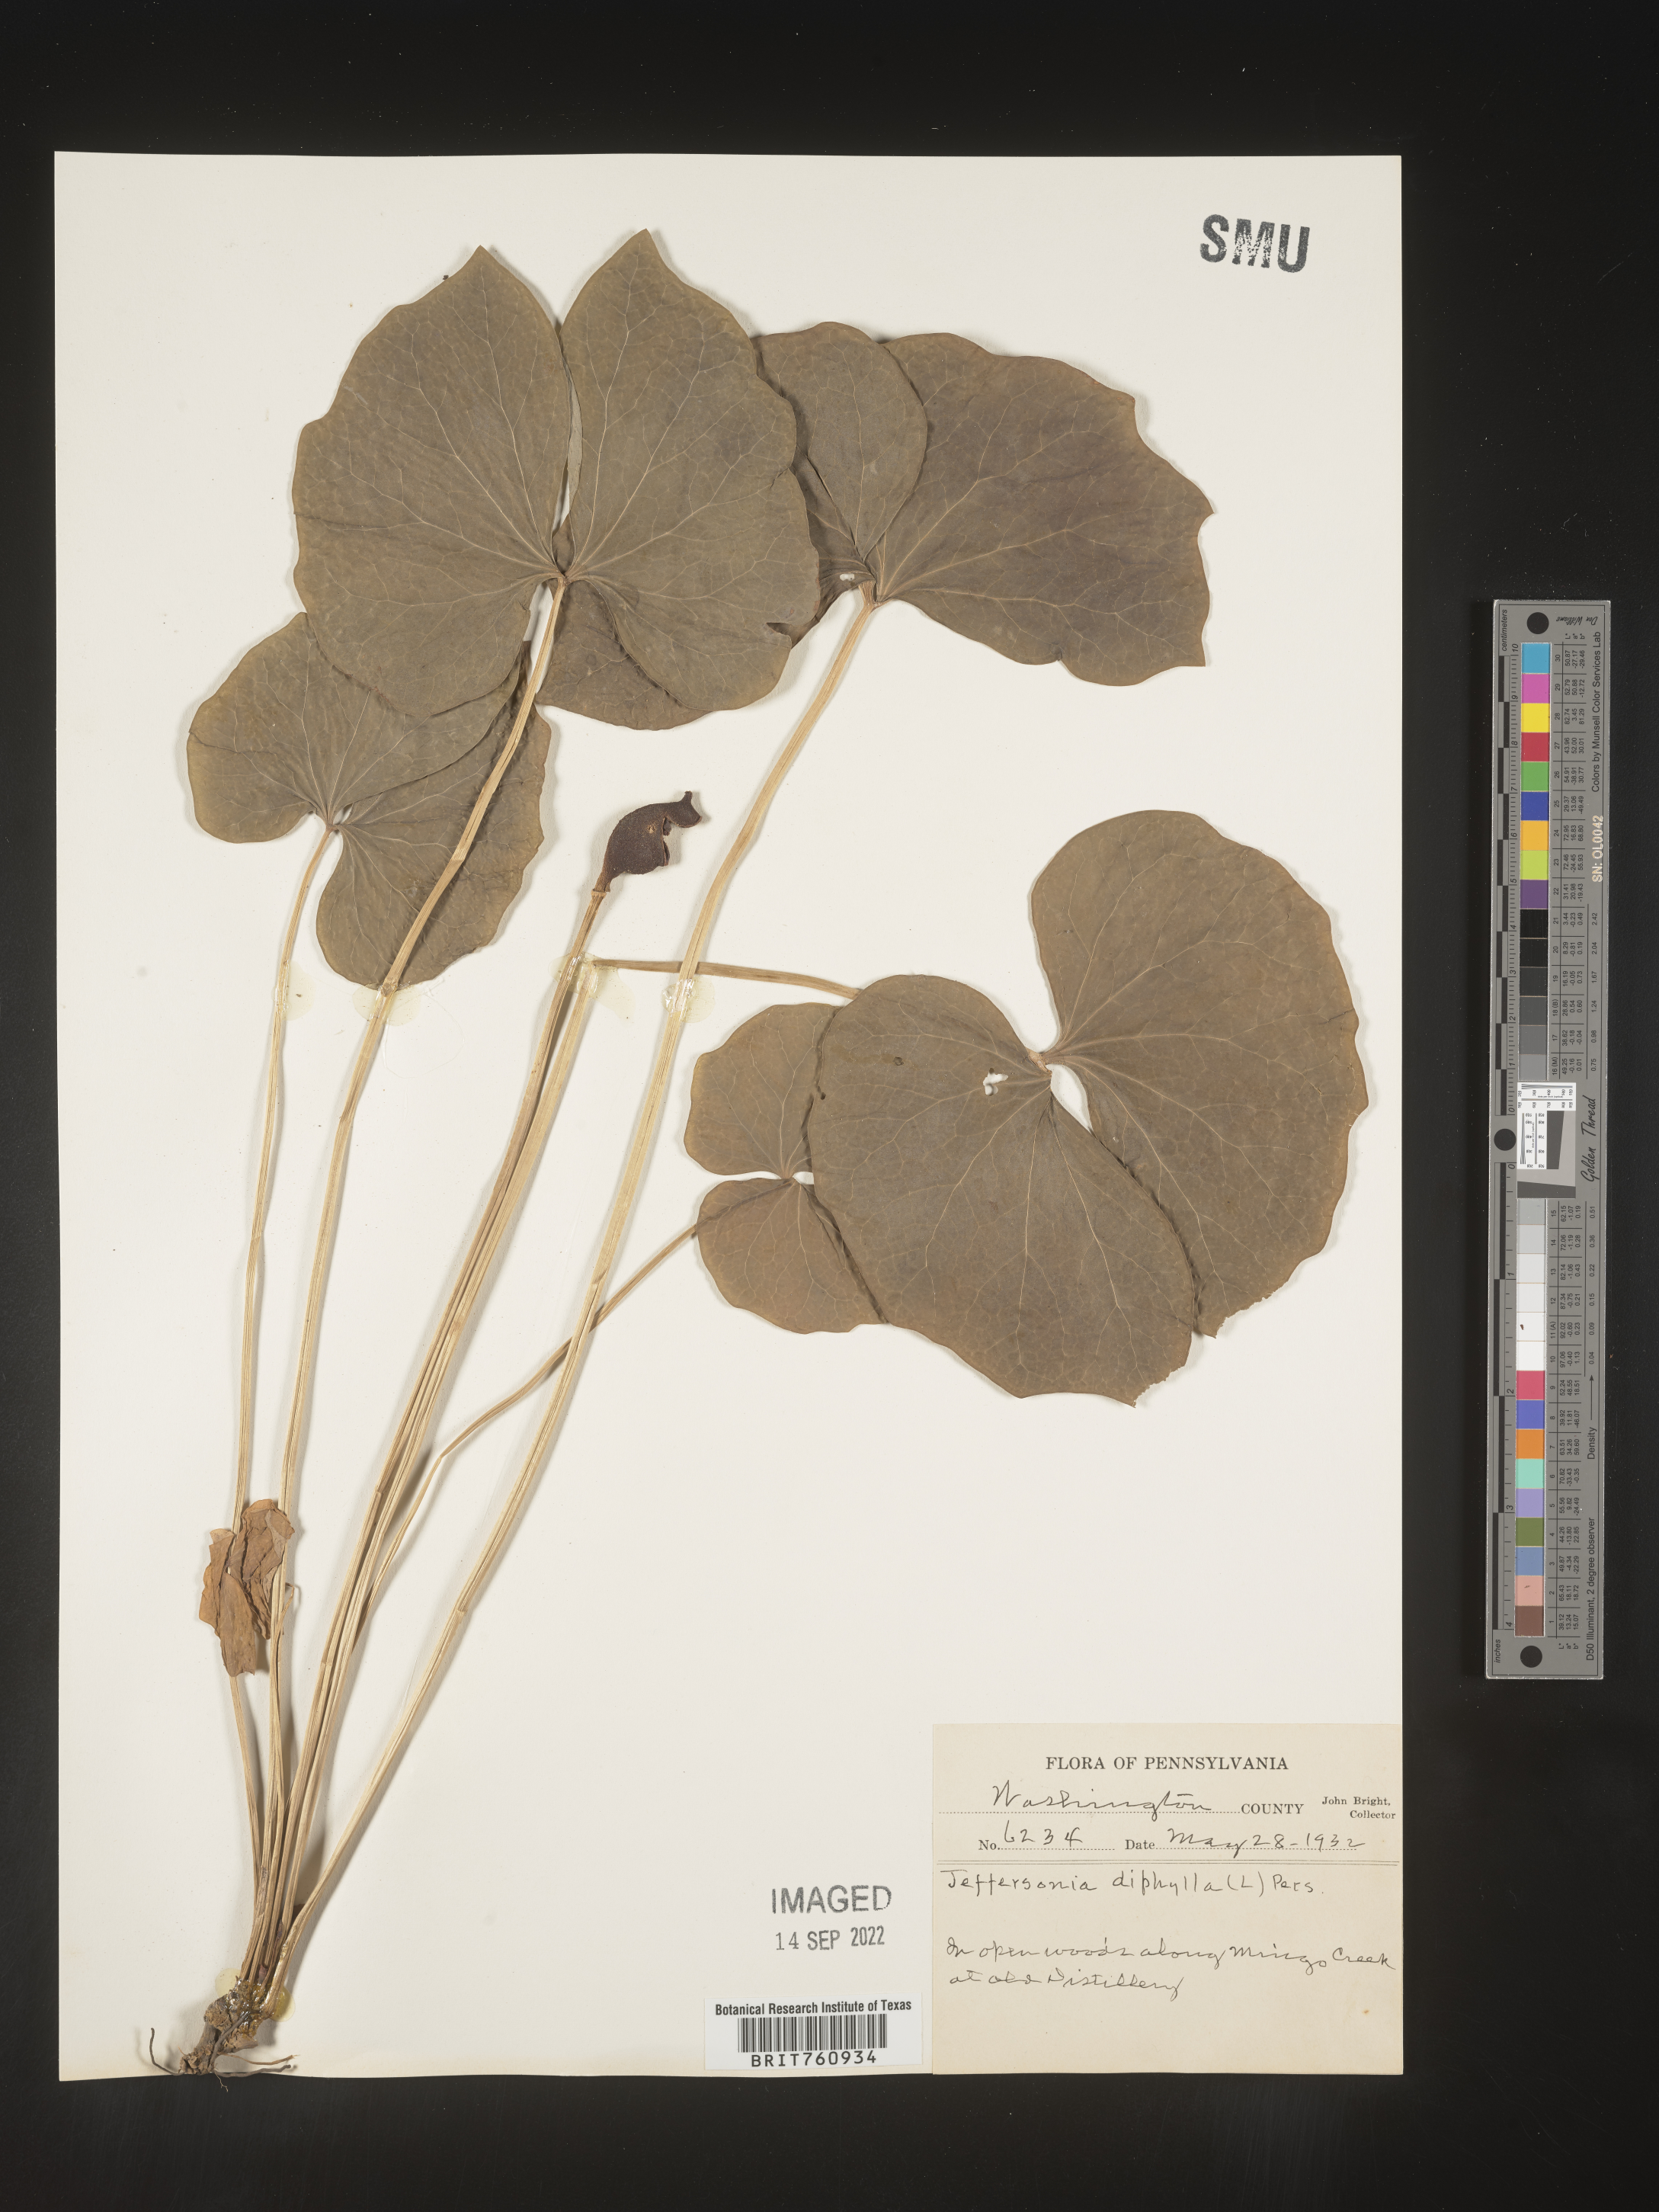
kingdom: Plantae
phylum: Tracheophyta
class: Magnoliopsida
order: Ranunculales
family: Berberidaceae
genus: Jeffersonia
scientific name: Jeffersonia
